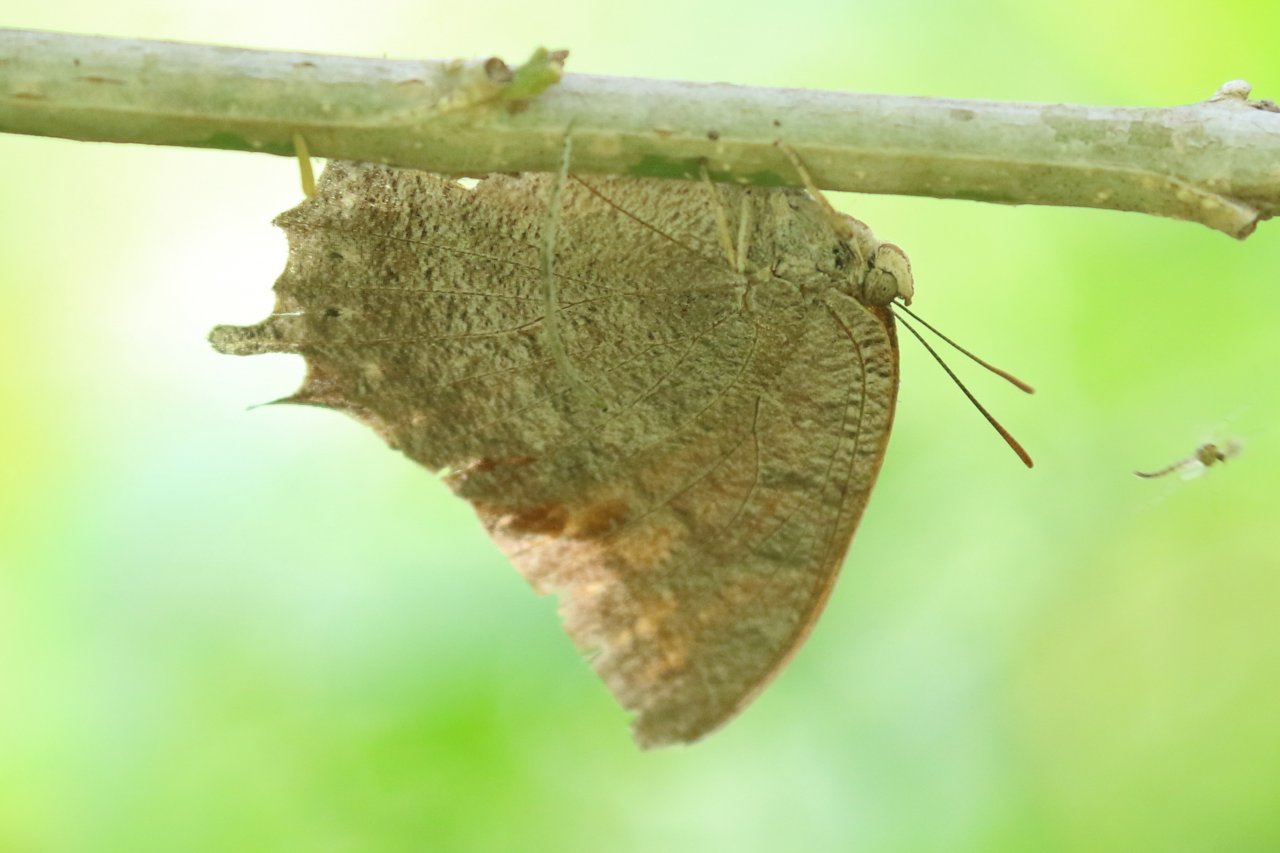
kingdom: Animalia
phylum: Arthropoda
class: Insecta
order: Lepidoptera
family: Nymphalidae
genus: Anaea
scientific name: Anaea aidea
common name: Tropical Leafwing
